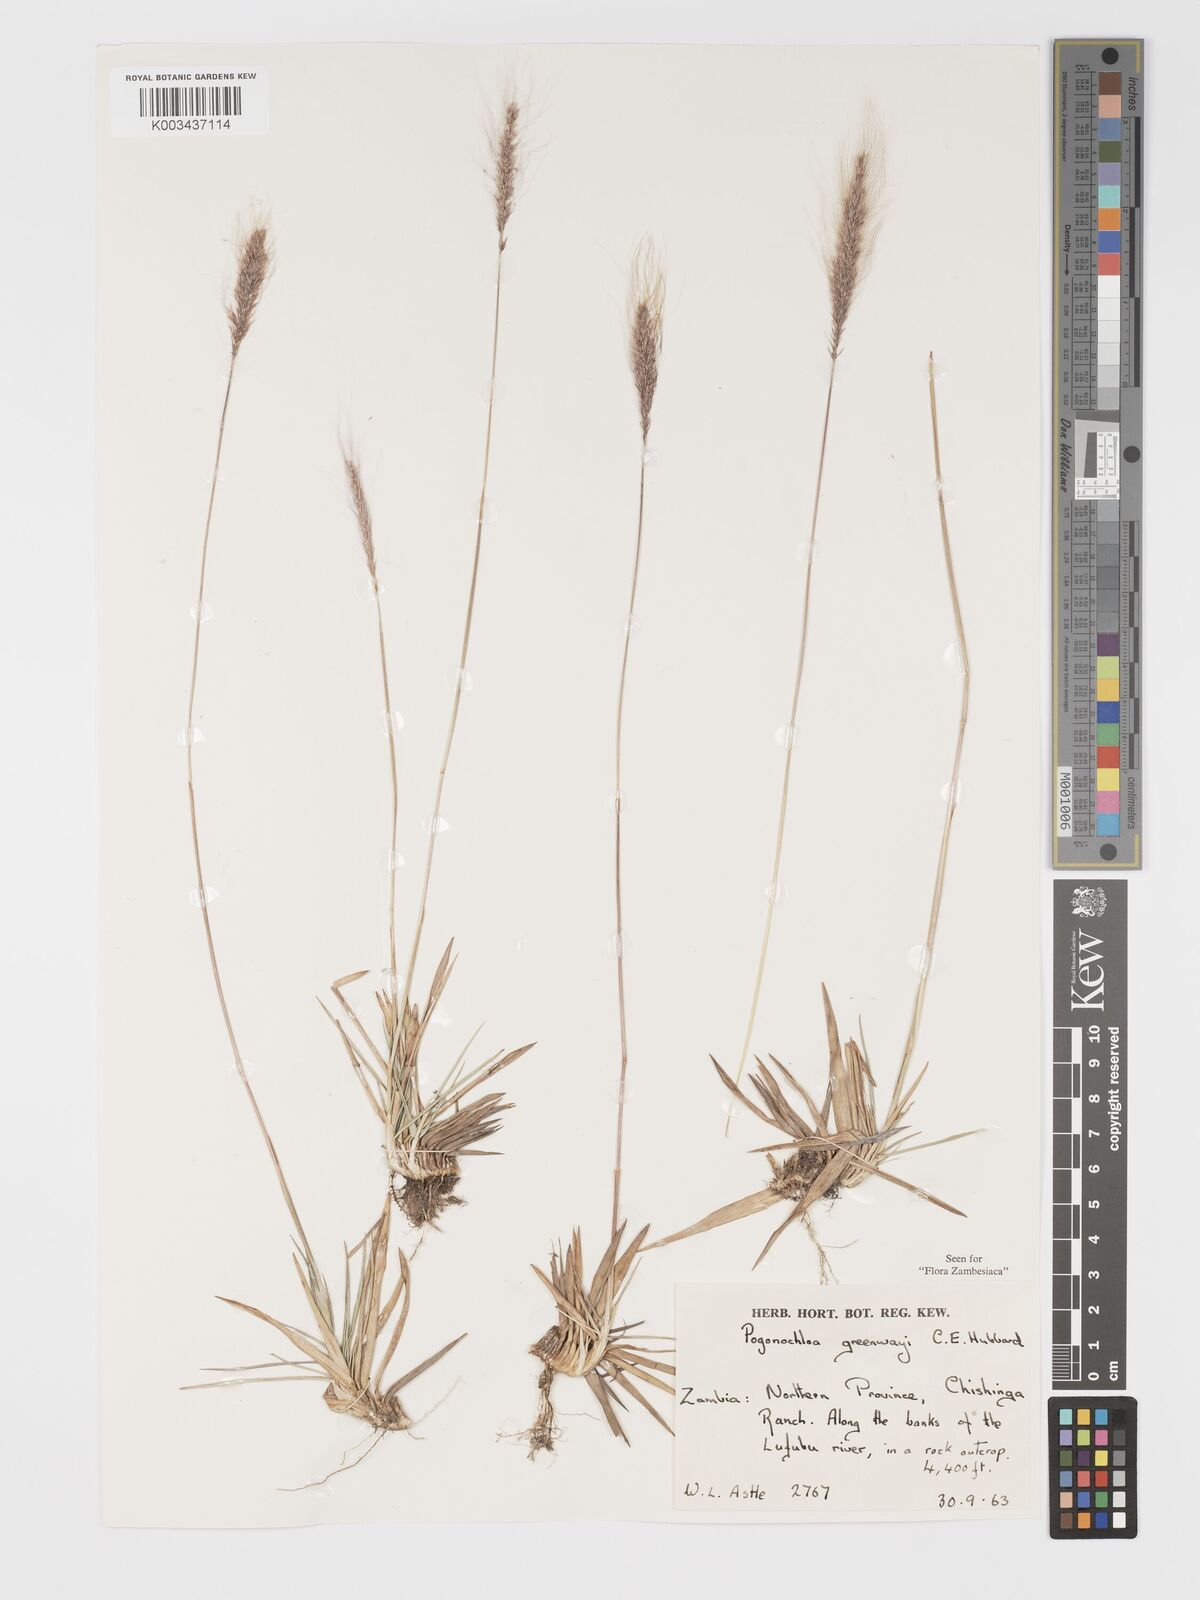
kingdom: Plantae
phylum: Tracheophyta
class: Liliopsida
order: Poales
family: Poaceae
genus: Pogonochloa
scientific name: Pogonochloa greenwayi
